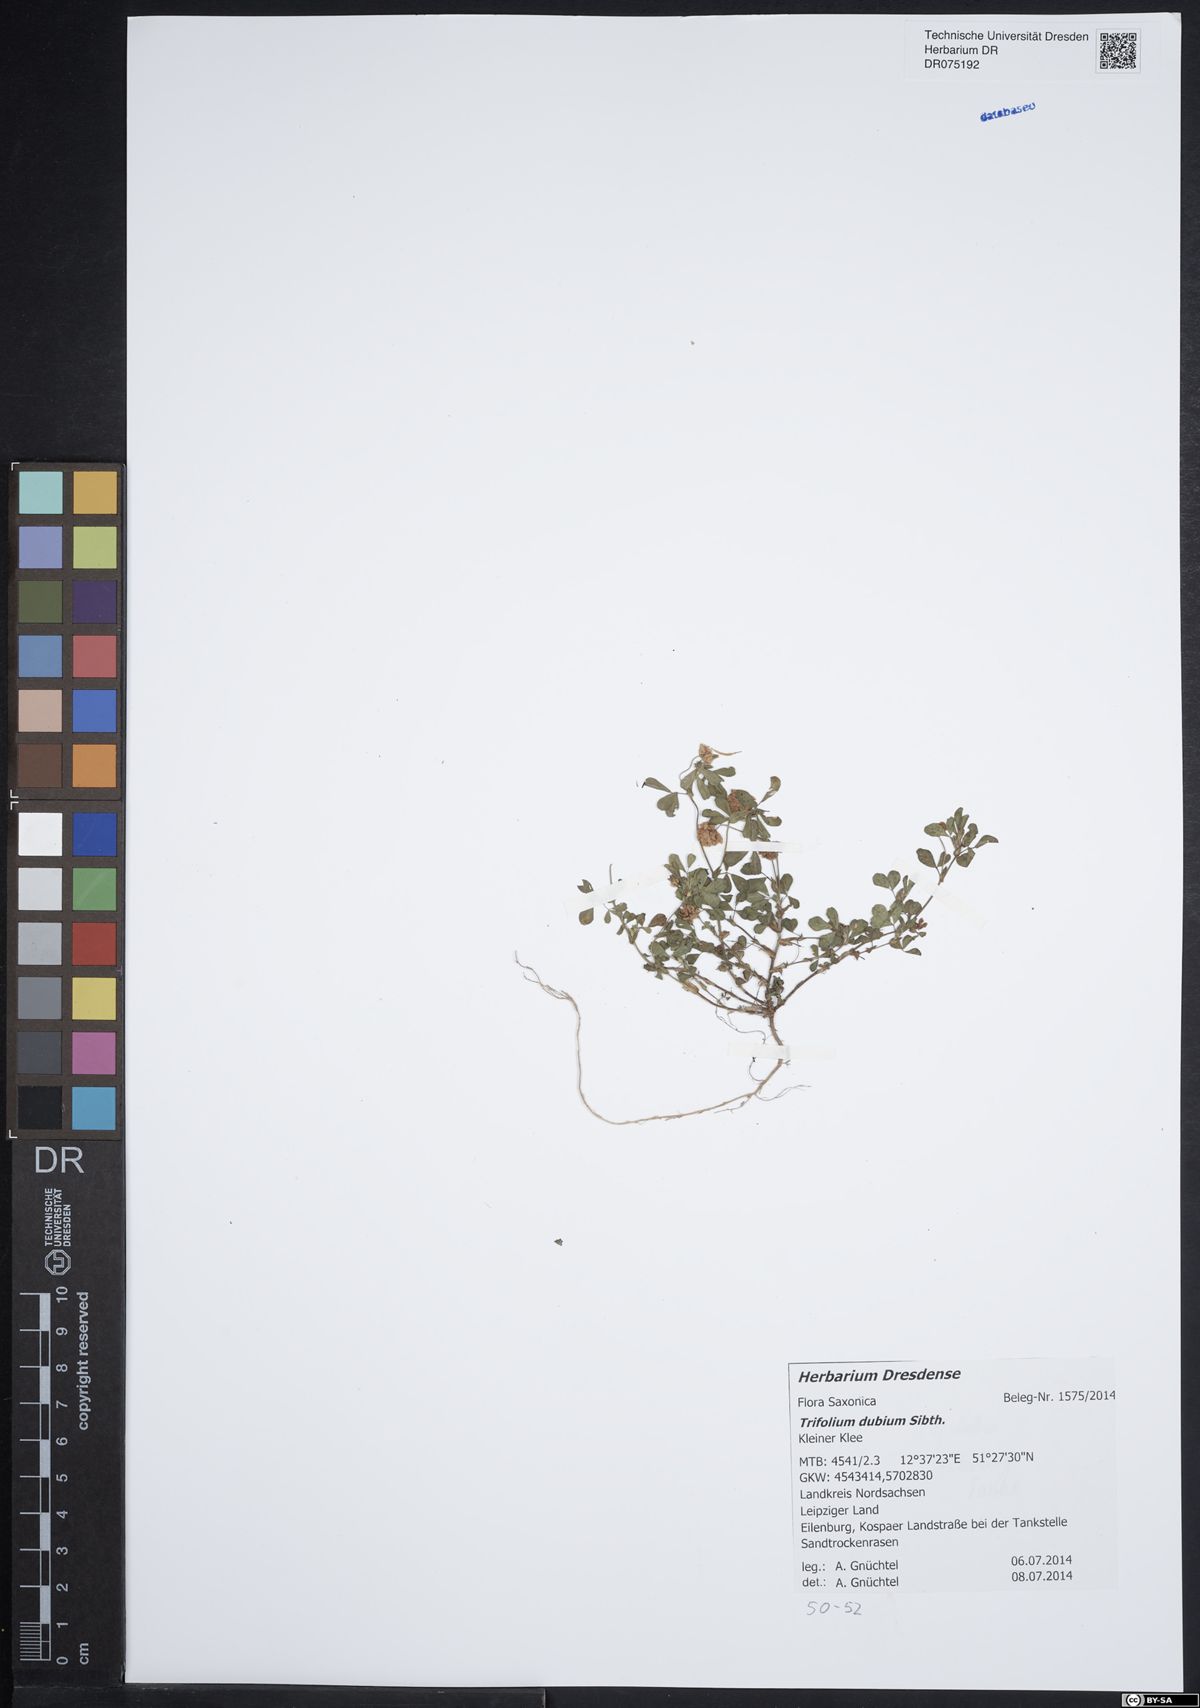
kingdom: Plantae
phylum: Tracheophyta
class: Magnoliopsida
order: Fabales
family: Fabaceae
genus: Trifolium
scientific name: Trifolium dubium
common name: Suckling clover
